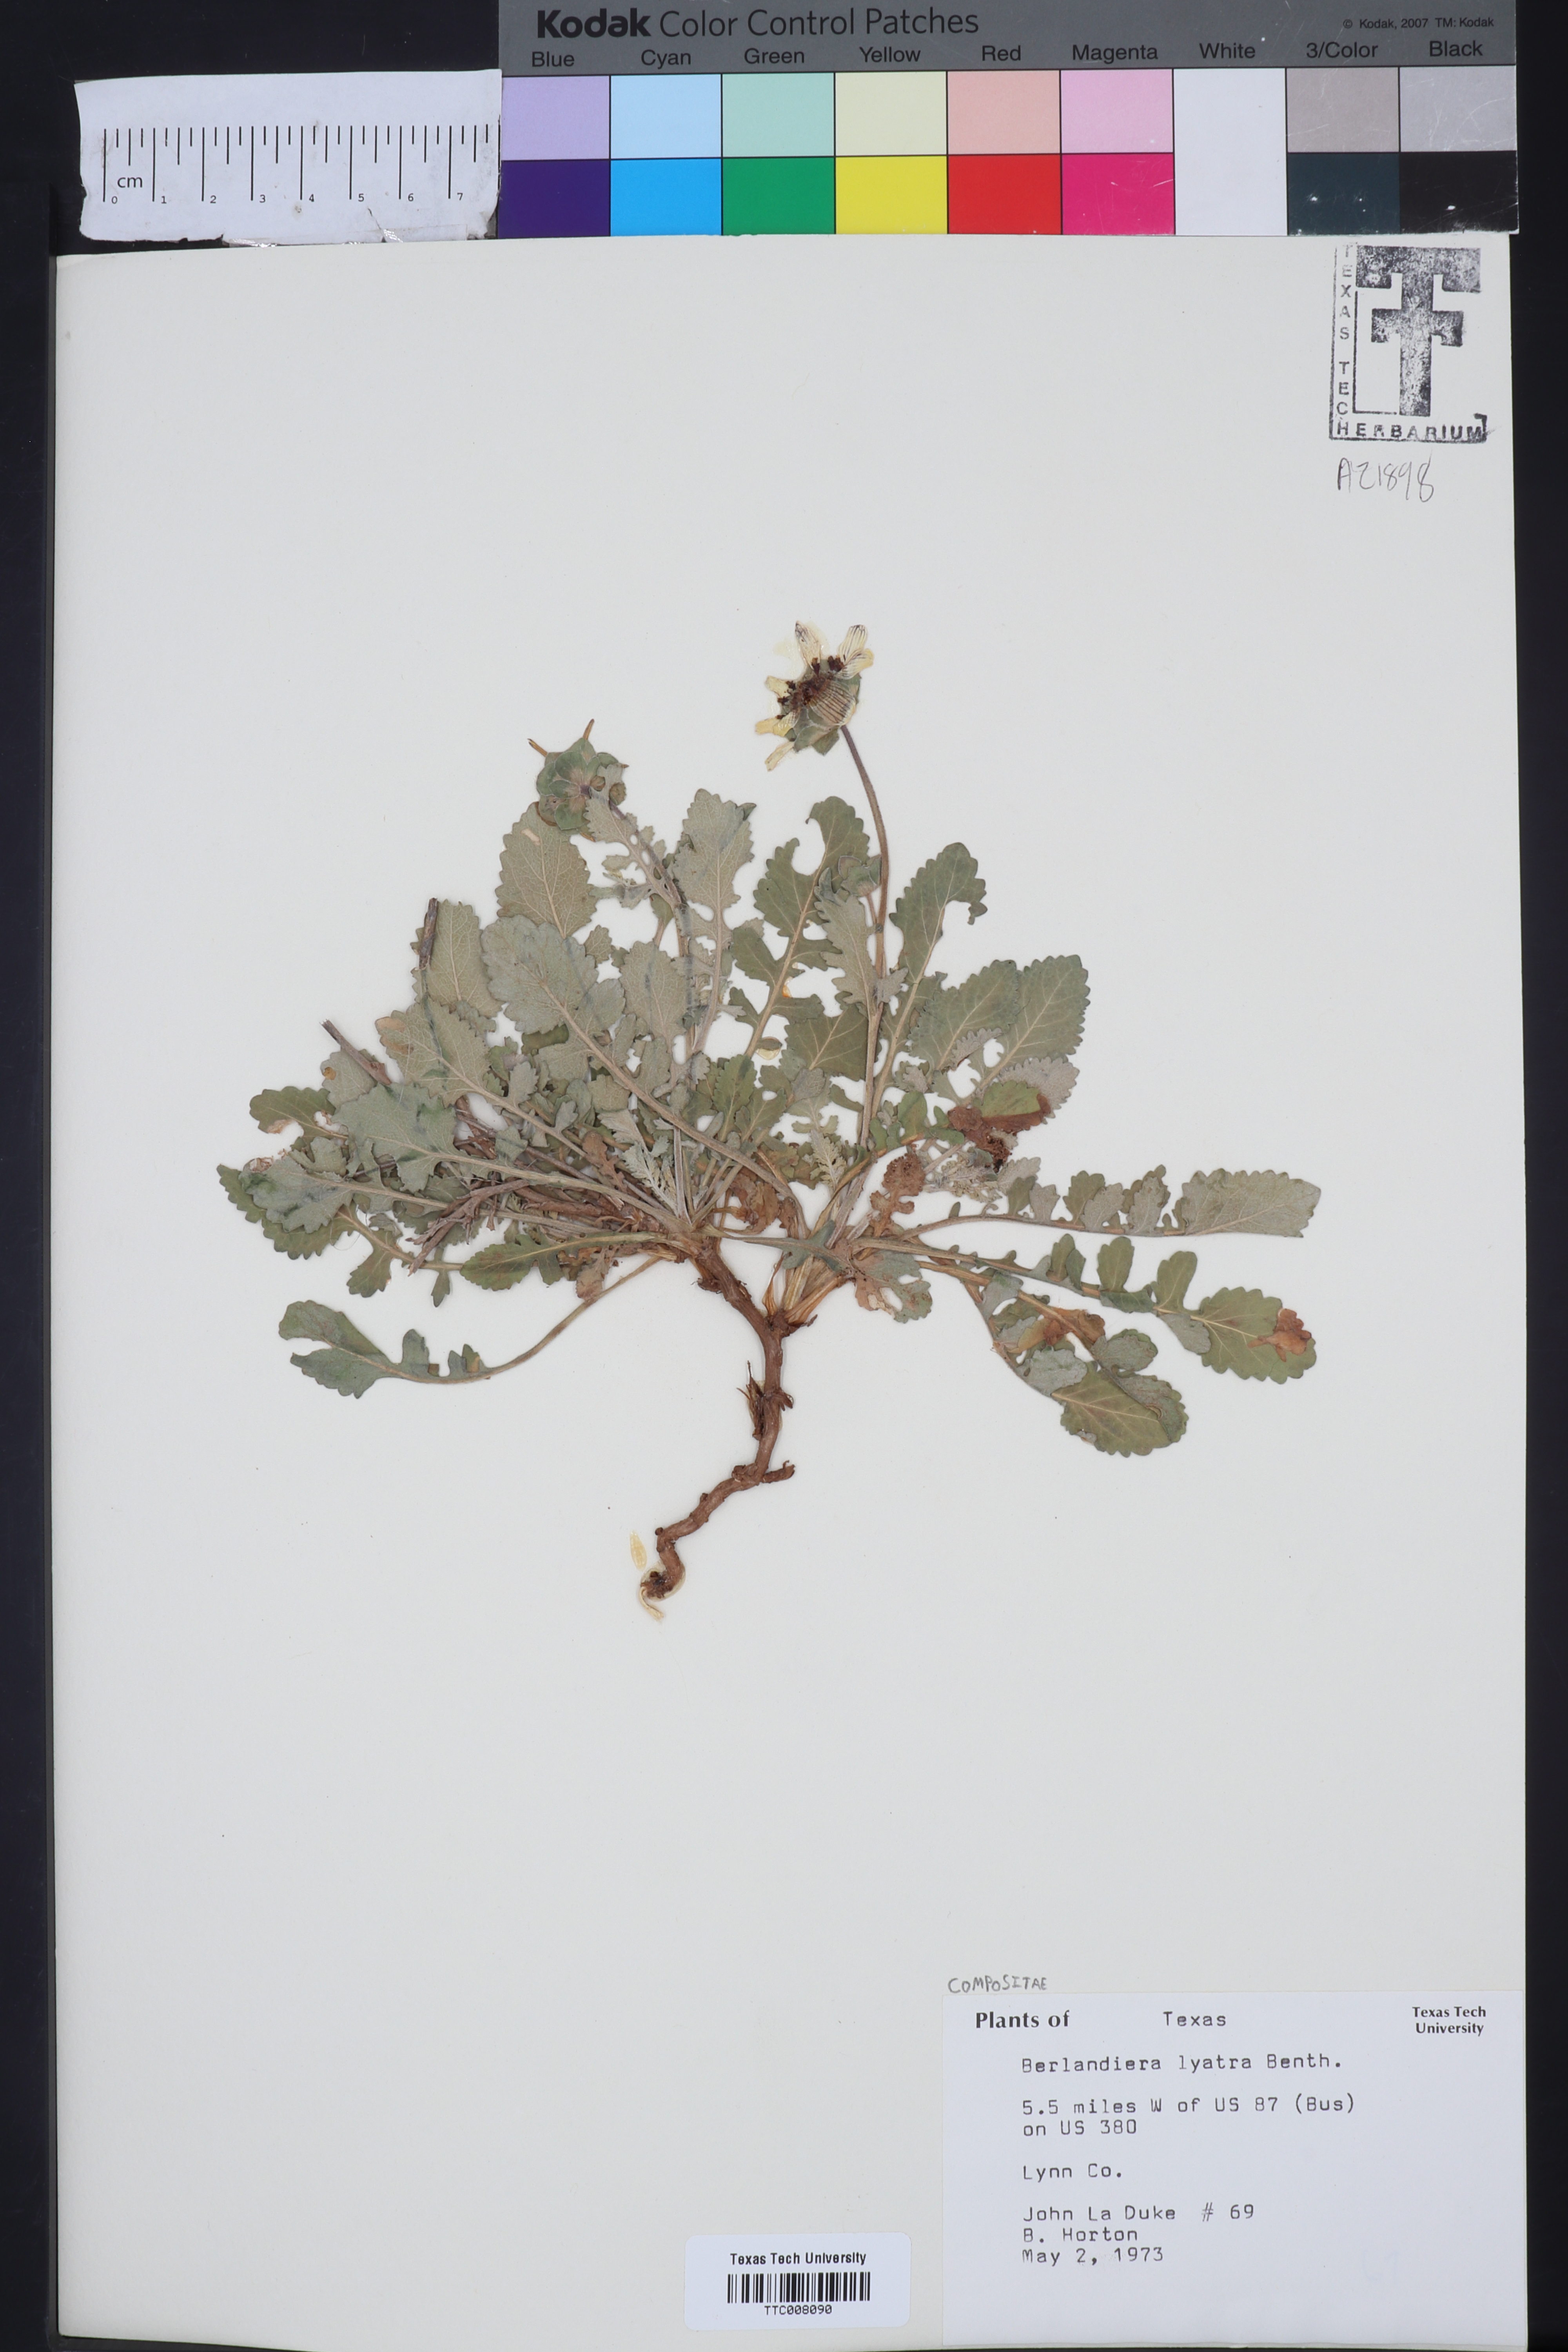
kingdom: Plantae
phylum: Tracheophyta
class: Magnoliopsida
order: Asterales
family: Asteraceae
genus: Berlandiera
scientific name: Berlandiera
